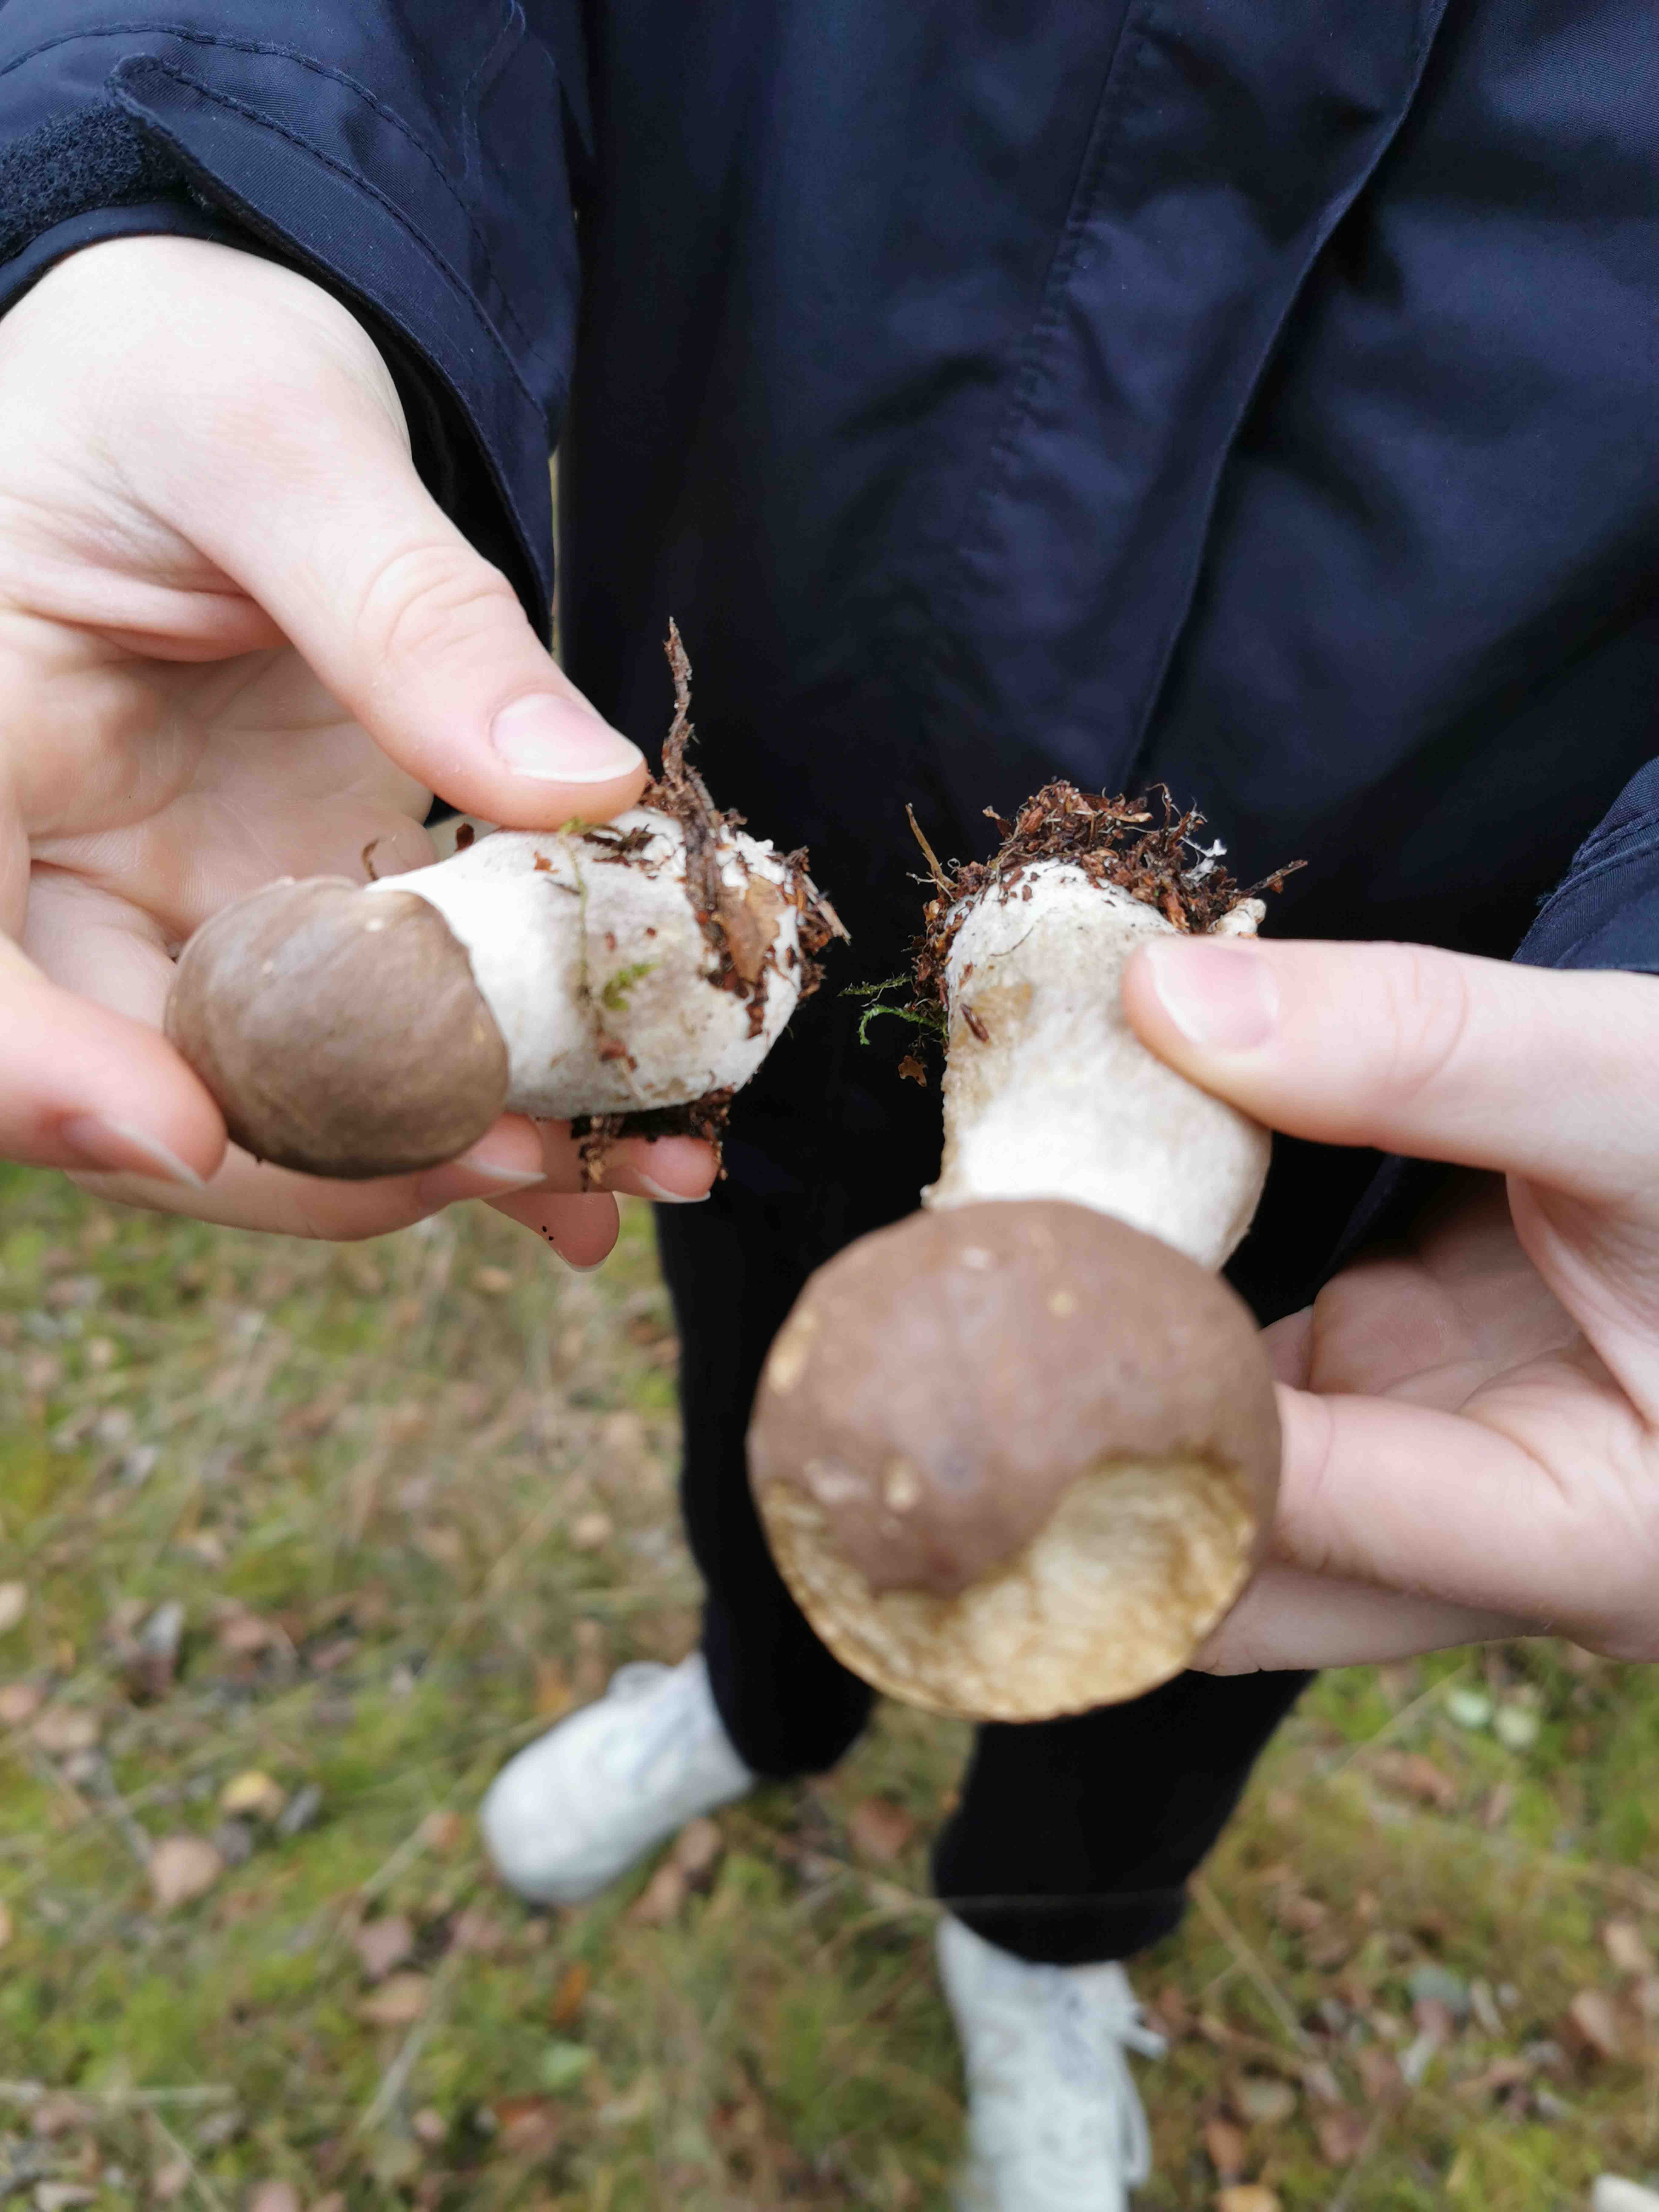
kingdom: Fungi
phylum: Basidiomycota
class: Agaricomycetes
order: Boletales
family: Boletaceae
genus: Leccinum
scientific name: Leccinum
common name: skælrørhat
